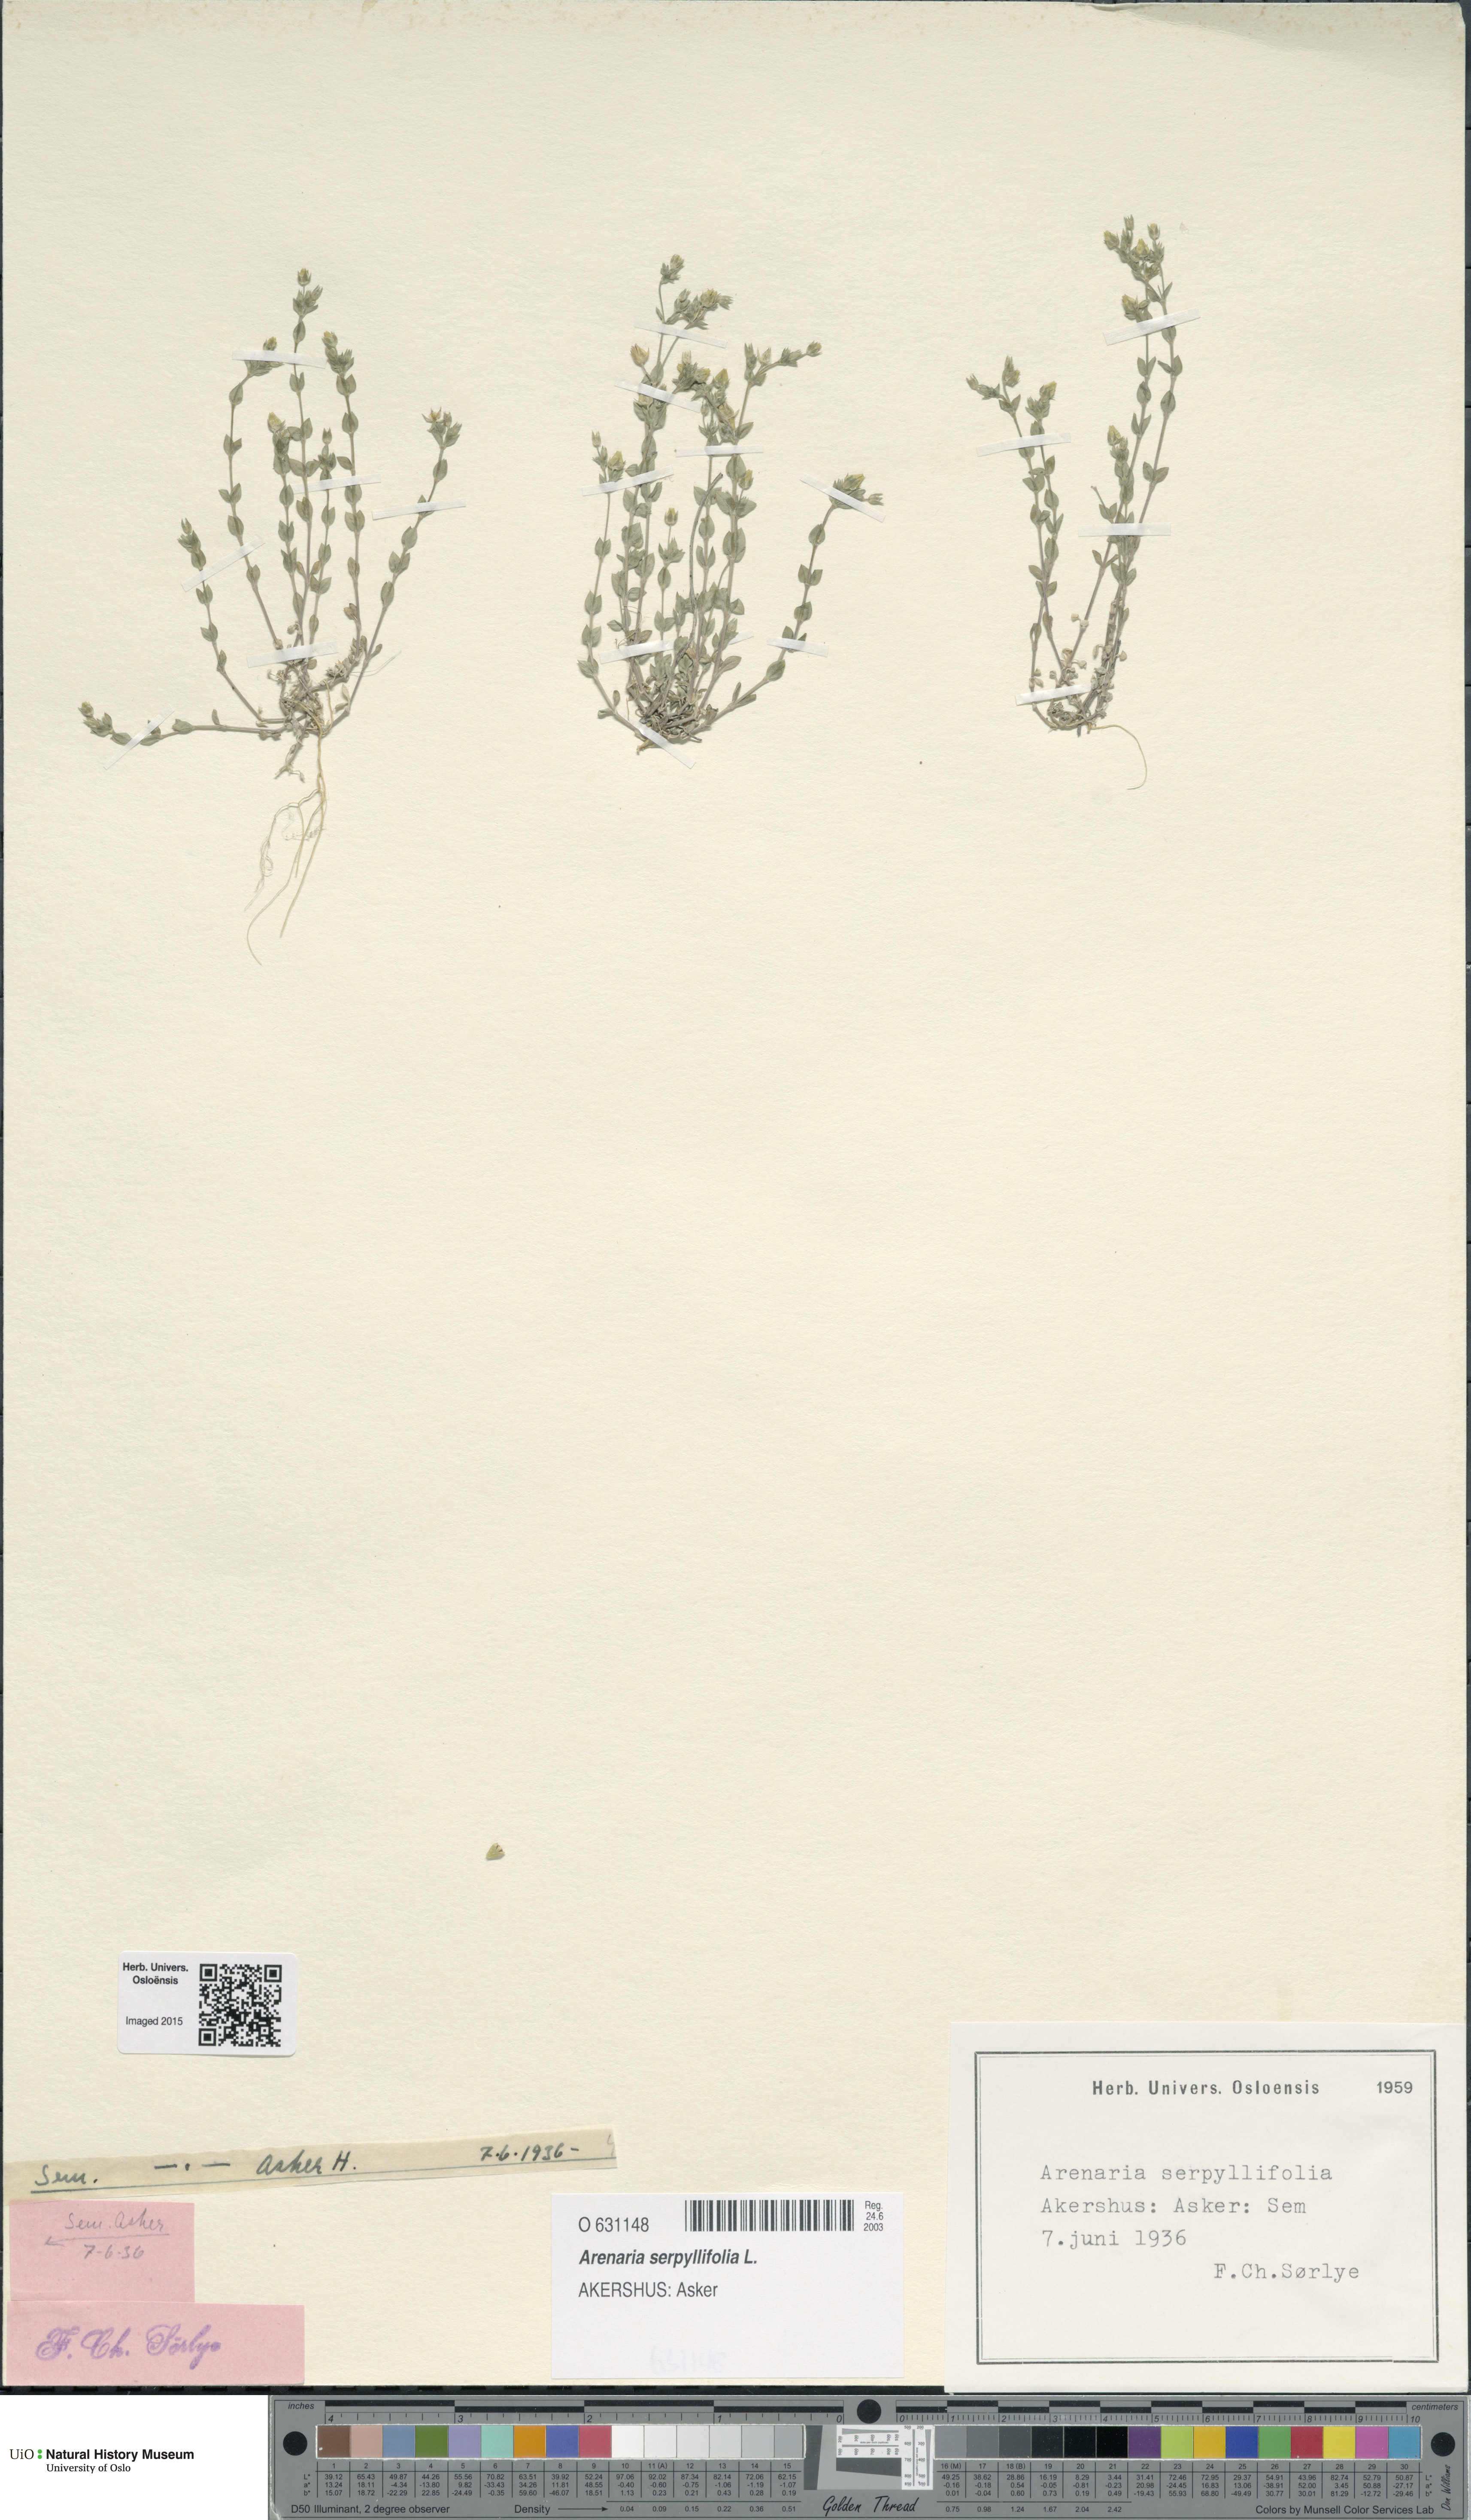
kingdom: Plantae
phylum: Tracheophyta
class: Magnoliopsida
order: Caryophyllales
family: Caryophyllaceae
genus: Arenaria
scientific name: Arenaria serpyllifolia
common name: Thyme-leaved sandwort
